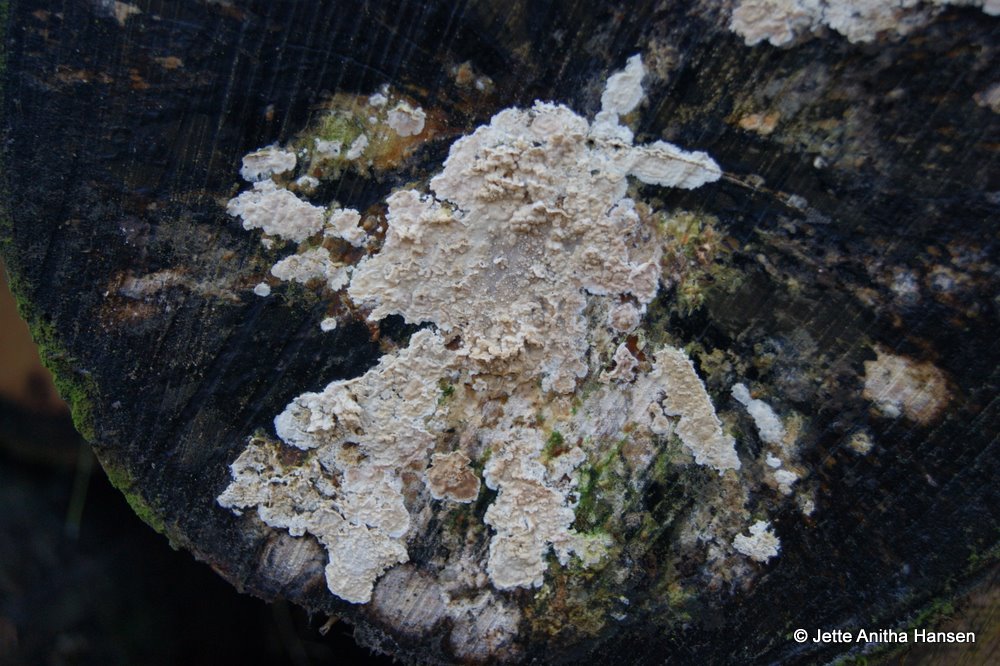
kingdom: Fungi
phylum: Basidiomycota
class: Agaricomycetes
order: Agaricales
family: Physalacriaceae
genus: Cylindrobasidium
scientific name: Cylindrobasidium evolvens
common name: sprækkehinde
